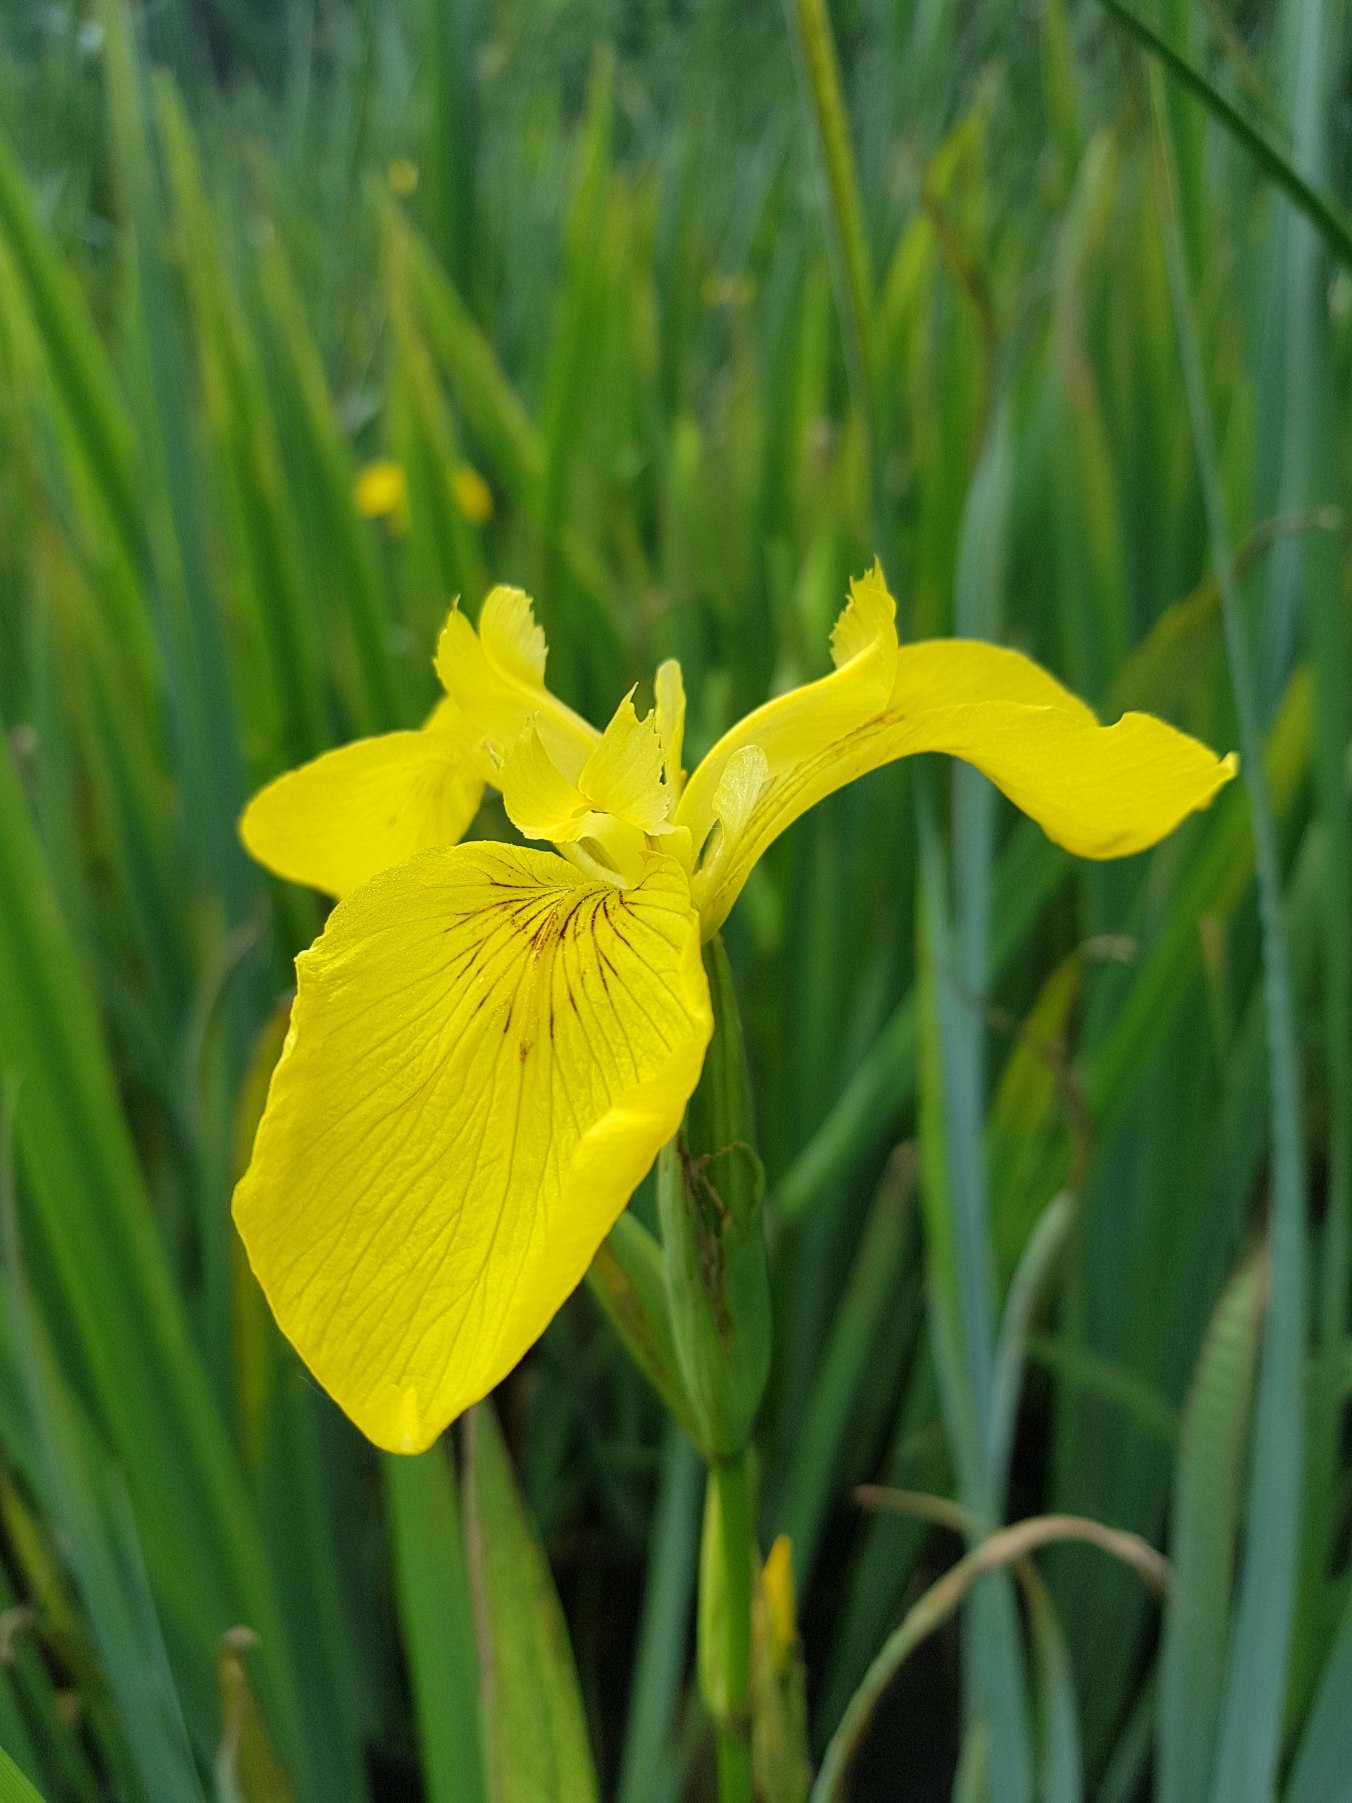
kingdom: Plantae
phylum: Tracheophyta
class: Liliopsida
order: Asparagales
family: Iridaceae
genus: Iris
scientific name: Iris pseudacorus
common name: Gul iris
